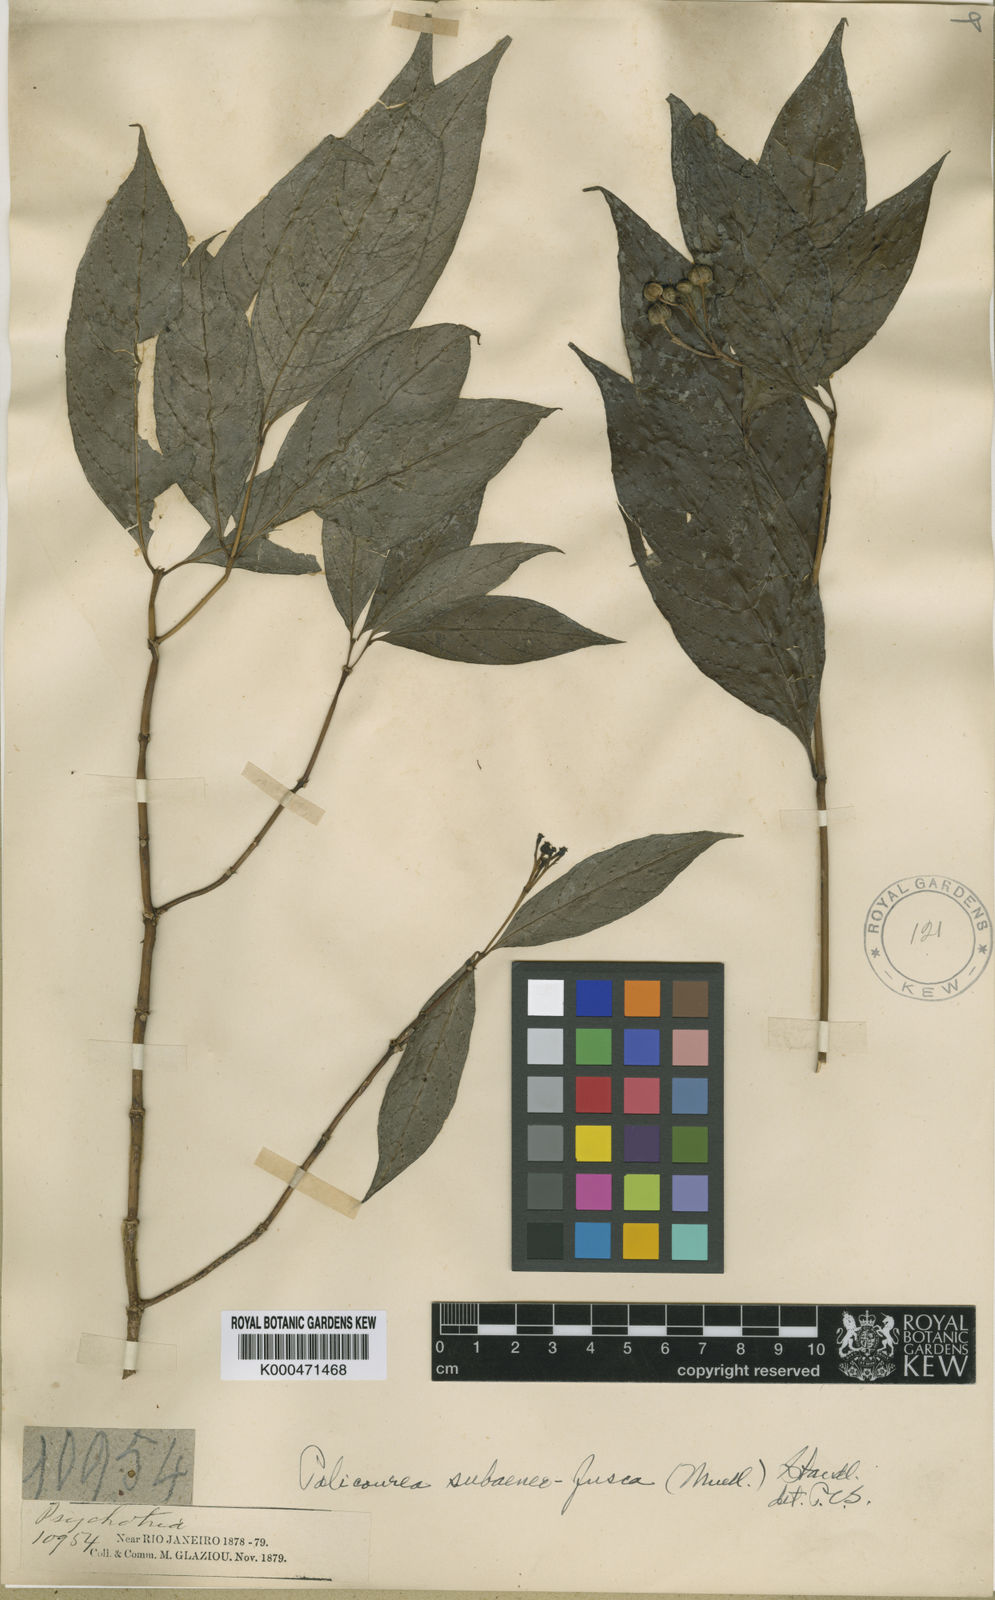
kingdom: Plantae
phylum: Tracheophyta
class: Magnoliopsida
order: Gentianales
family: Rubiaceae
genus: Palicourea
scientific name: Palicourea
